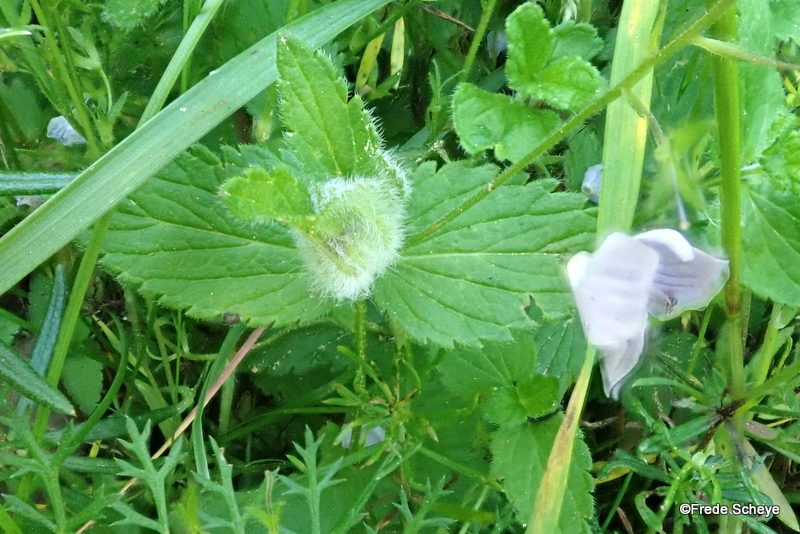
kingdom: Animalia
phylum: Arthropoda
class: Insecta
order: Diptera
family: Cecidomyiidae
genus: Jaapiella
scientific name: Jaapiella veronicae
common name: Ærenprisgalmyg
